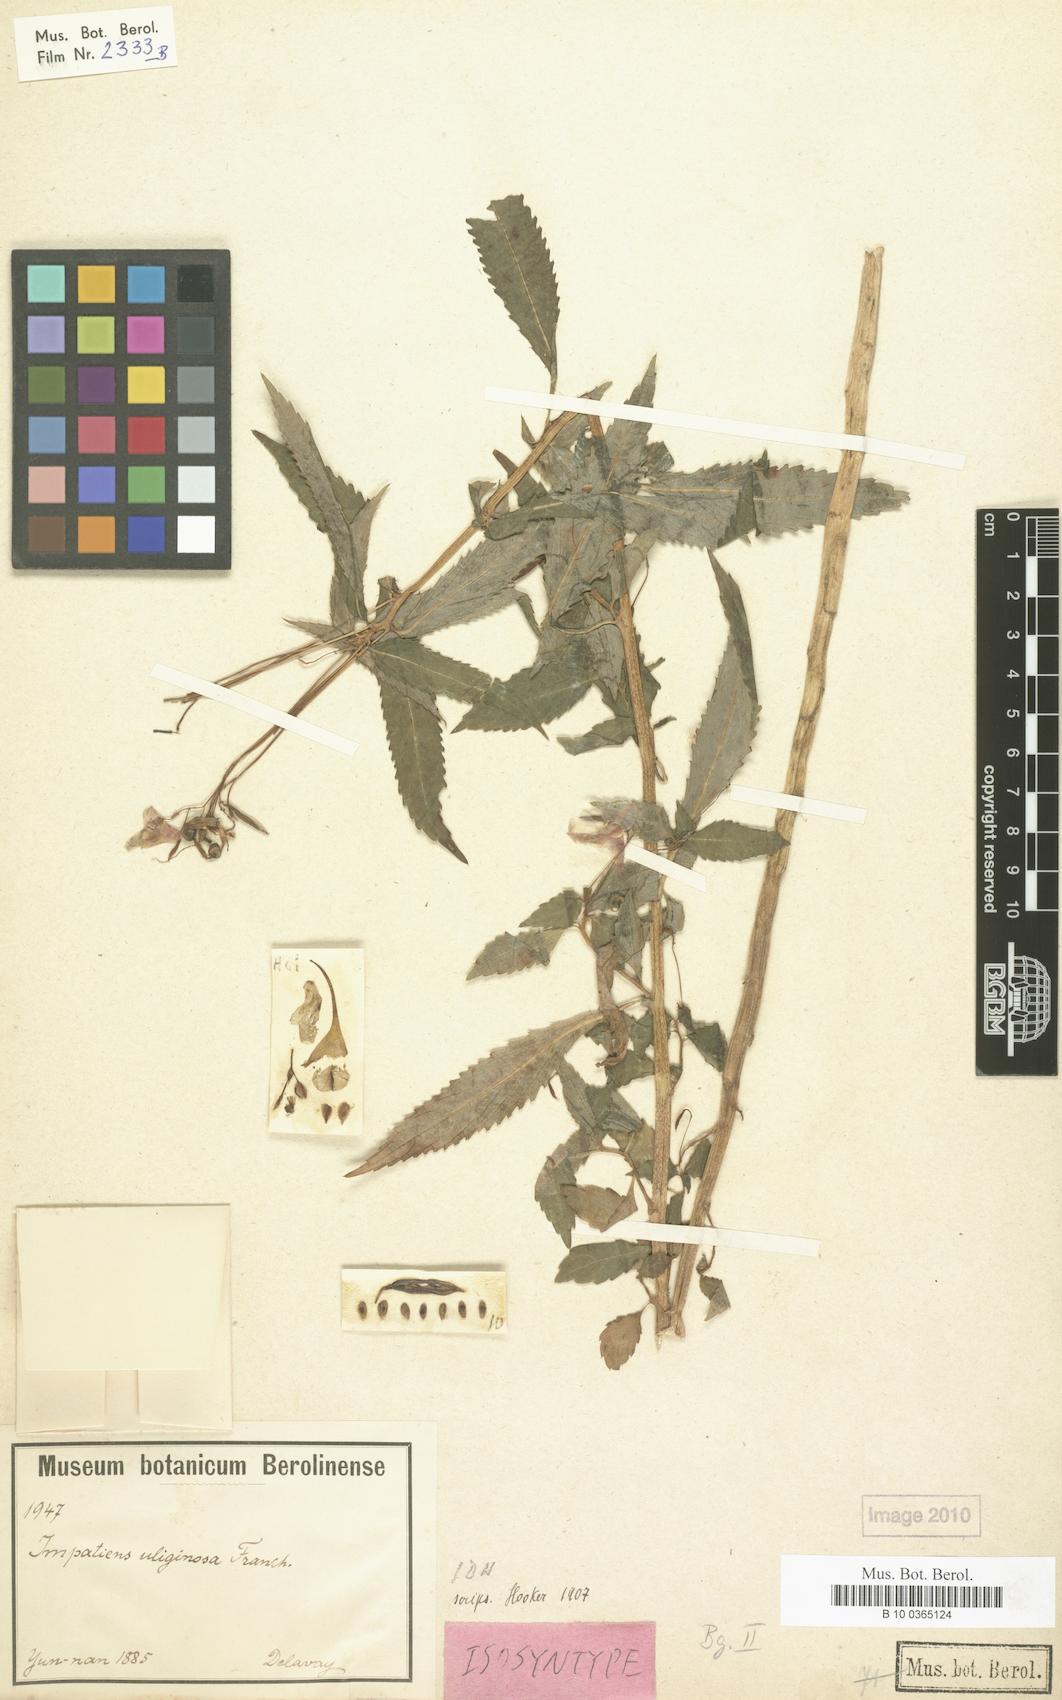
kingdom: Plantae
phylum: Tracheophyta
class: Magnoliopsida
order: Ericales
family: Balsaminaceae
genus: Impatiens
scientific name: Impatiens uliginosa
